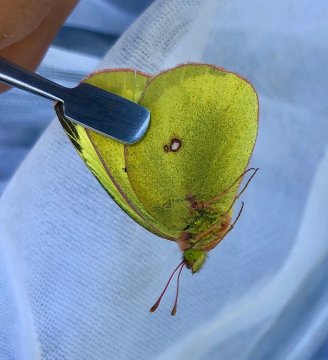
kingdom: Animalia
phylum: Arthropoda
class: Insecta
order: Lepidoptera
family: Pieridae
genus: Colias
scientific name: Colias gigantea
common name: Giant Sulphur
